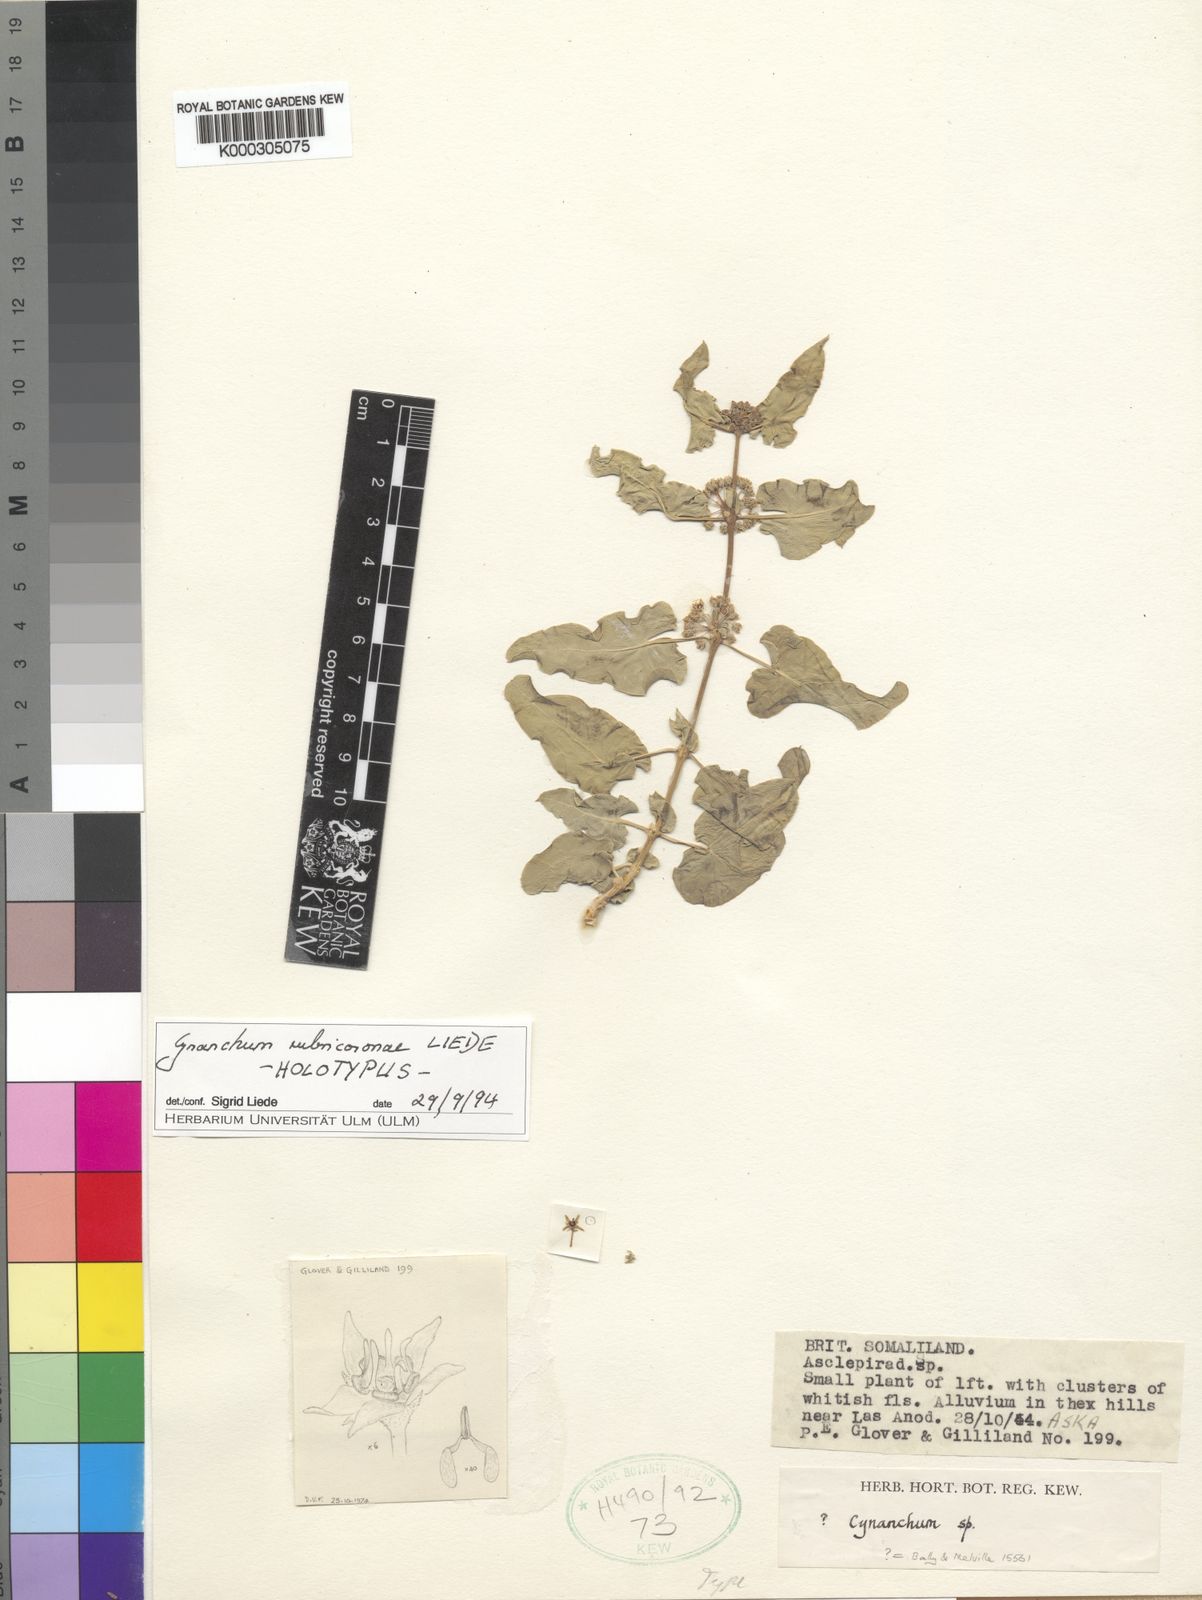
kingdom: Plantae
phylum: Tracheophyta
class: Magnoliopsida
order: Gentianales
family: Apocynaceae
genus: Cynanchum
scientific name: Cynanchum rubricoronae
